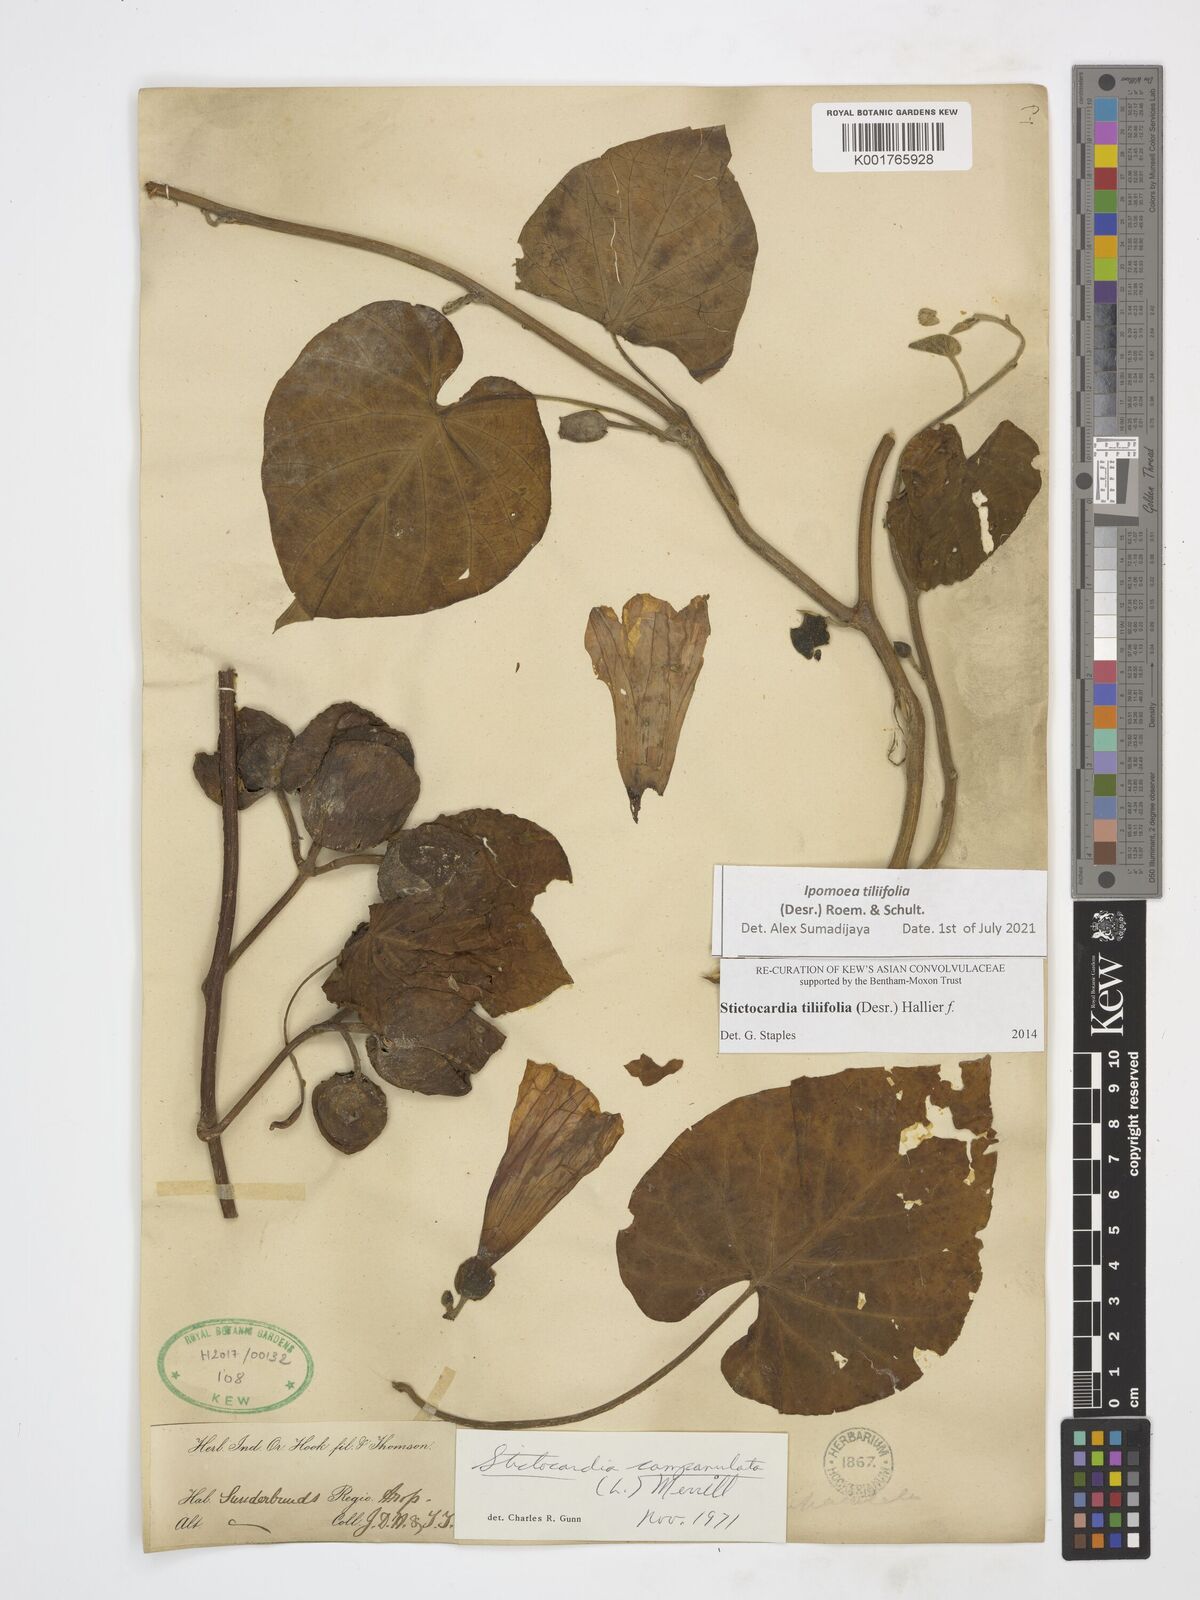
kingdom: Plantae
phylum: Tracheophyta
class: Magnoliopsida
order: Solanales
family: Convolvulaceae
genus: Stictocardia
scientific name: Stictocardia tiliifolia
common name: Spottedheart
